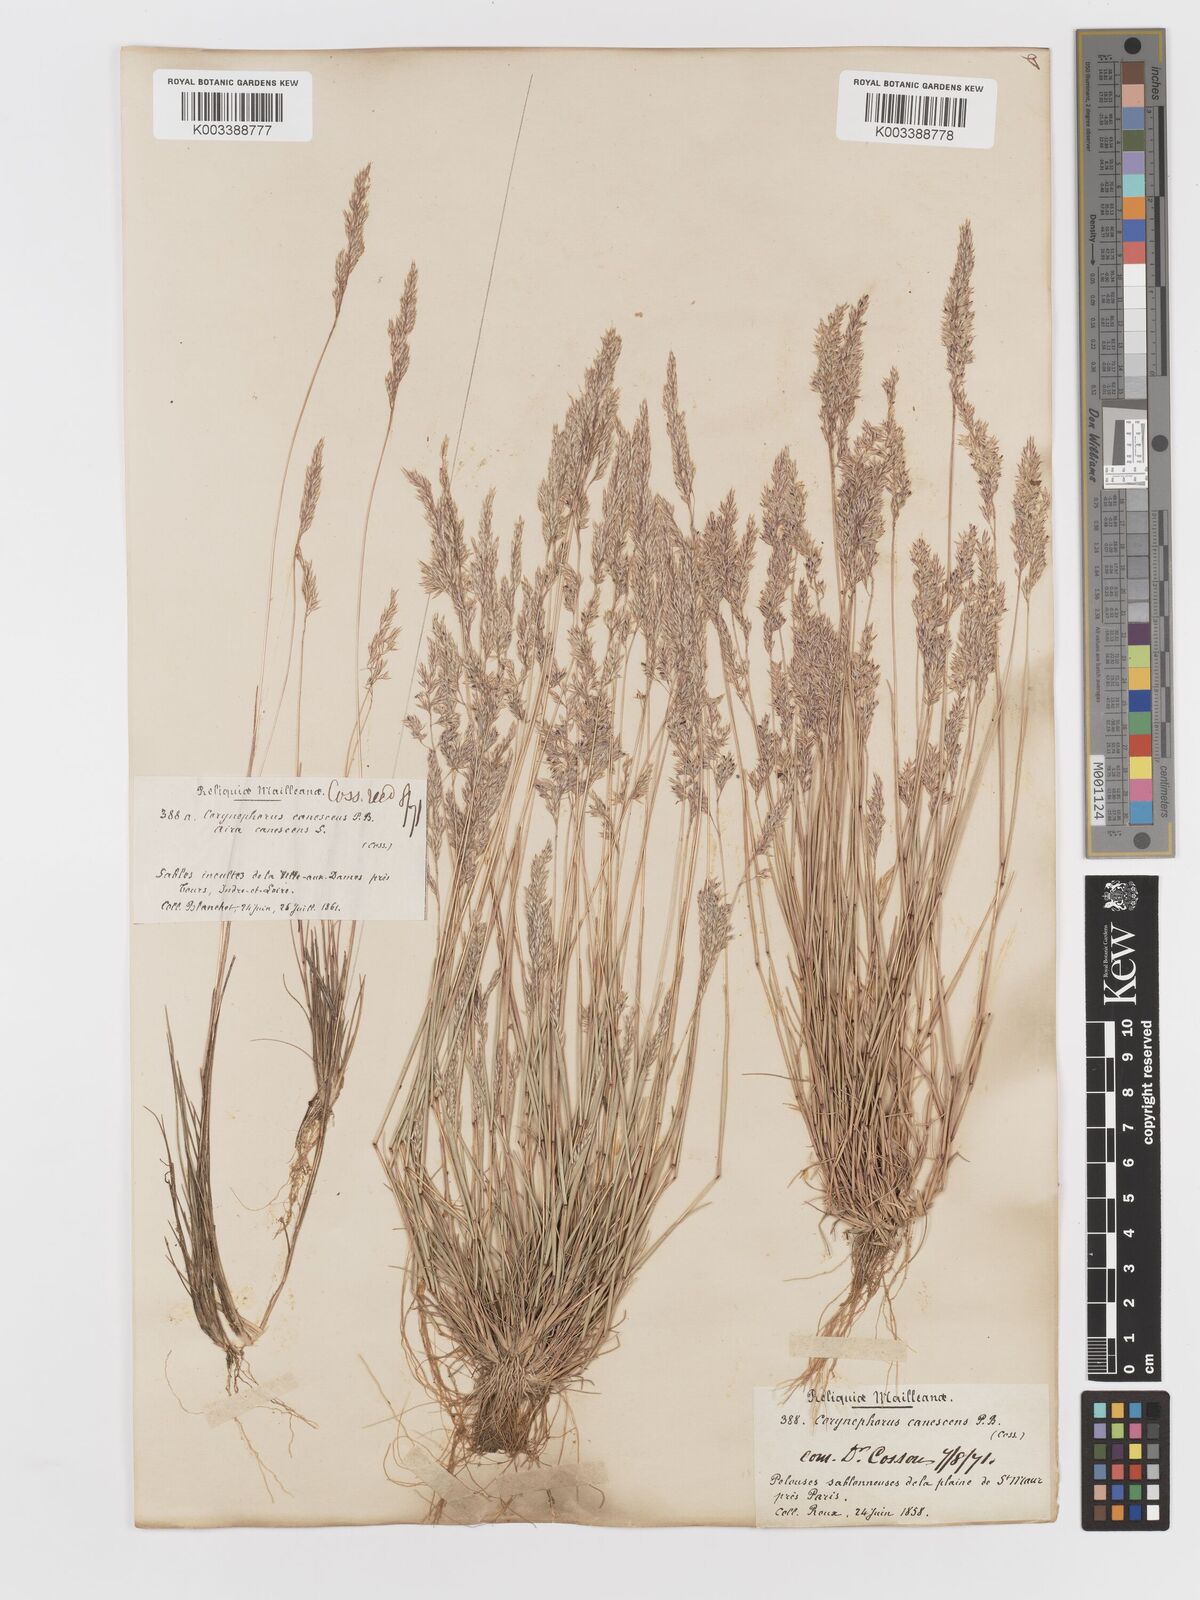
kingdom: Plantae
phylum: Tracheophyta
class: Liliopsida
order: Poales
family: Poaceae
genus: Corynephorus
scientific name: Corynephorus canescens
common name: Grey hair-grass
